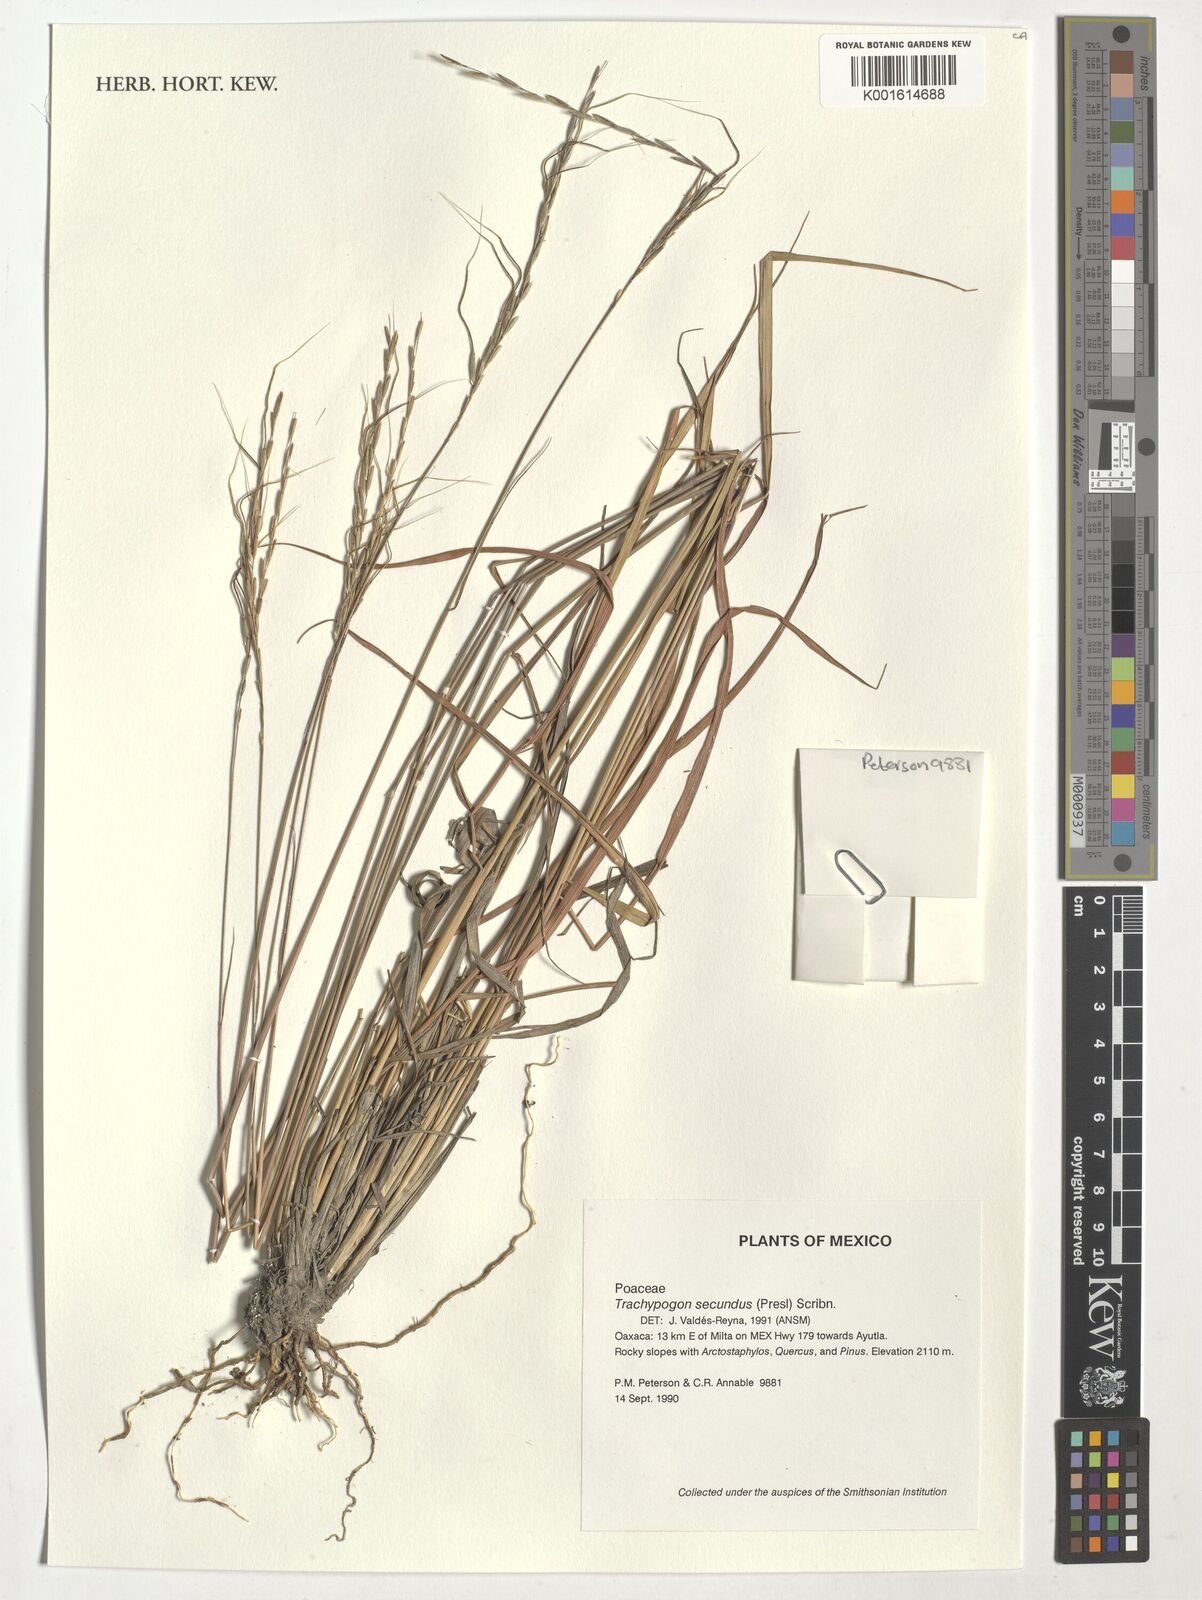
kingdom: Plantae
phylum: Tracheophyta
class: Liliopsida
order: Poales
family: Poaceae
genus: Trachypogon
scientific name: Trachypogon spicatus
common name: Crinkle-awn
